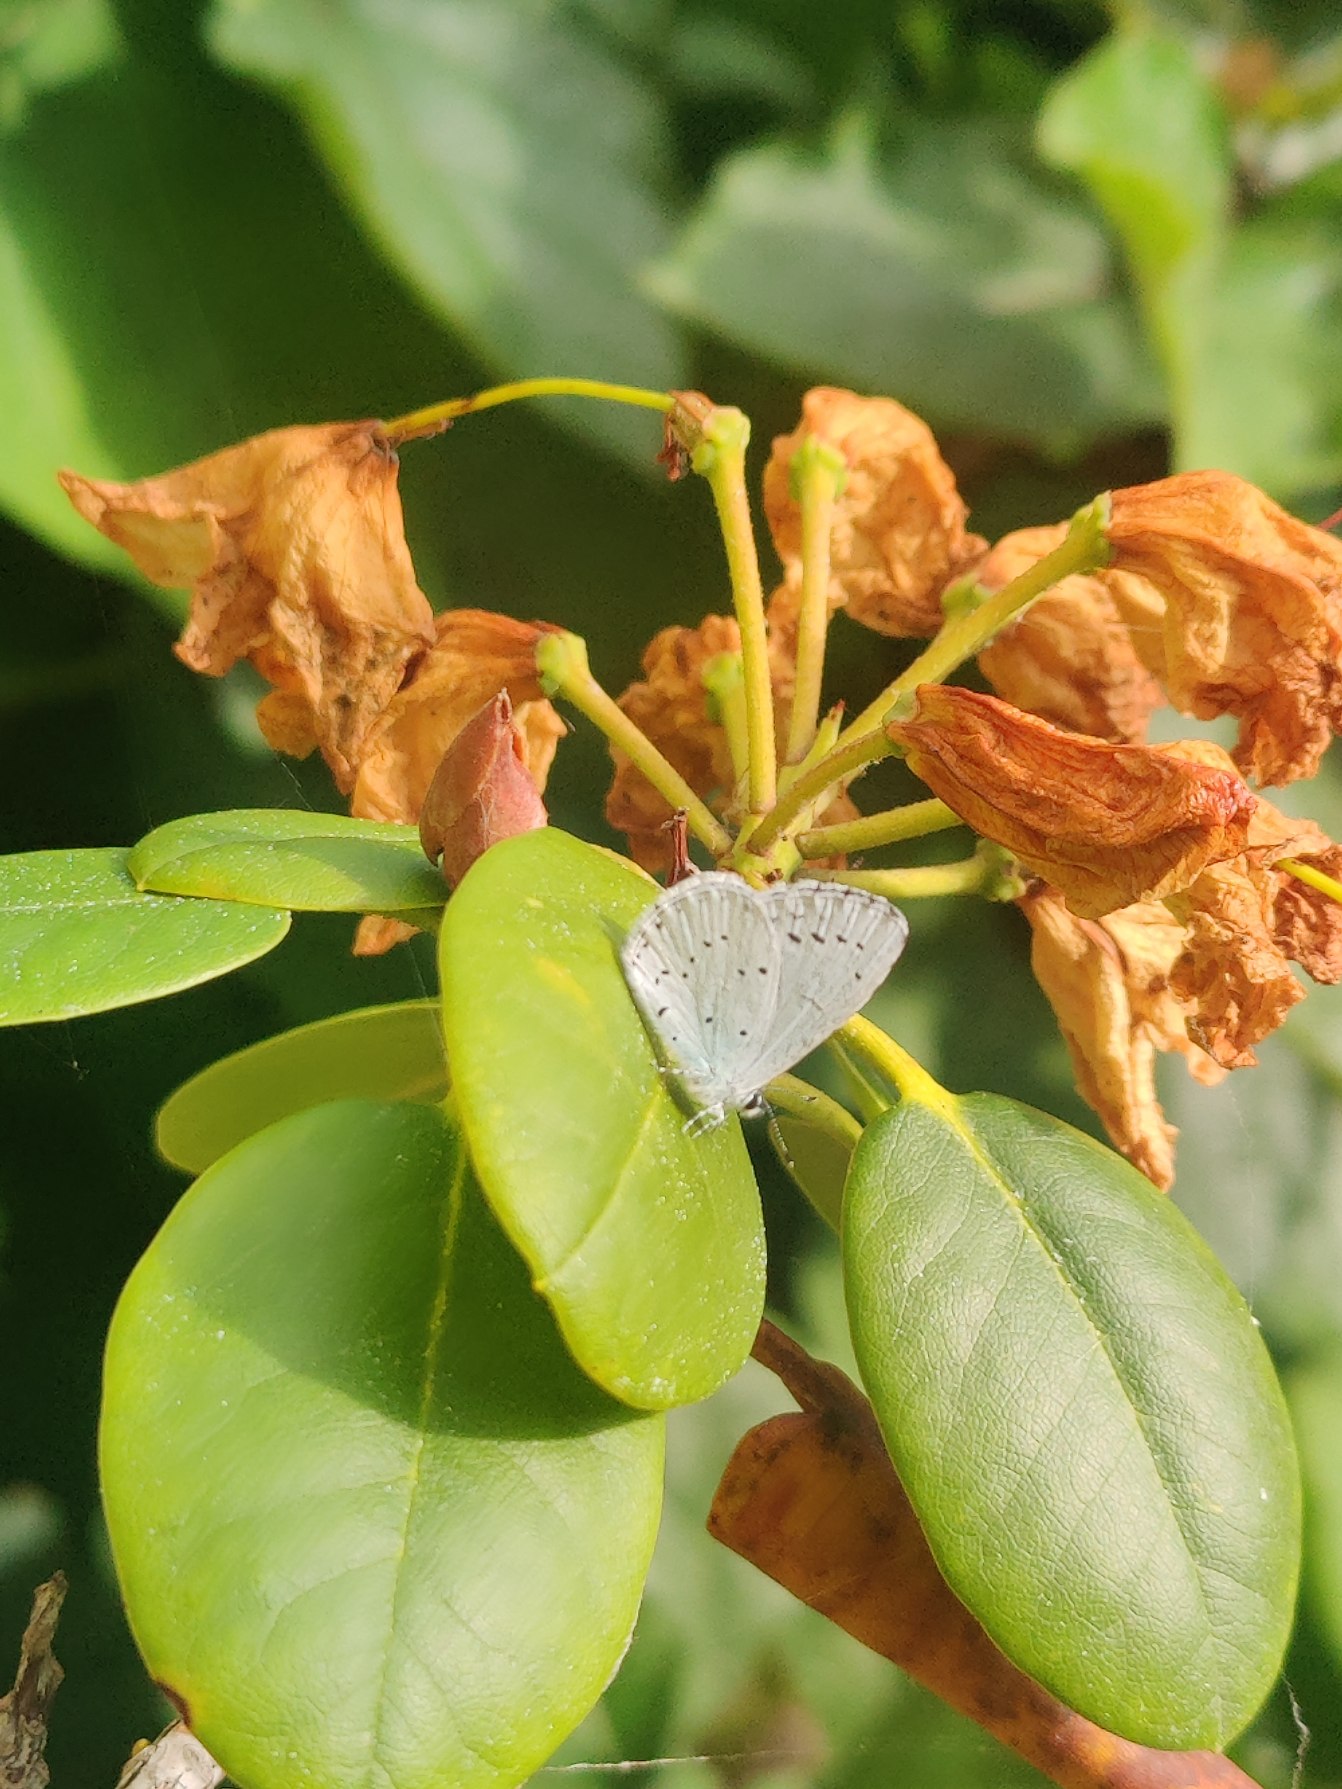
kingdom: Animalia
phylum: Arthropoda
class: Insecta
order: Lepidoptera
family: Lycaenidae
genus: Celastrina
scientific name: Celastrina argiolus
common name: Skovblåfugl
